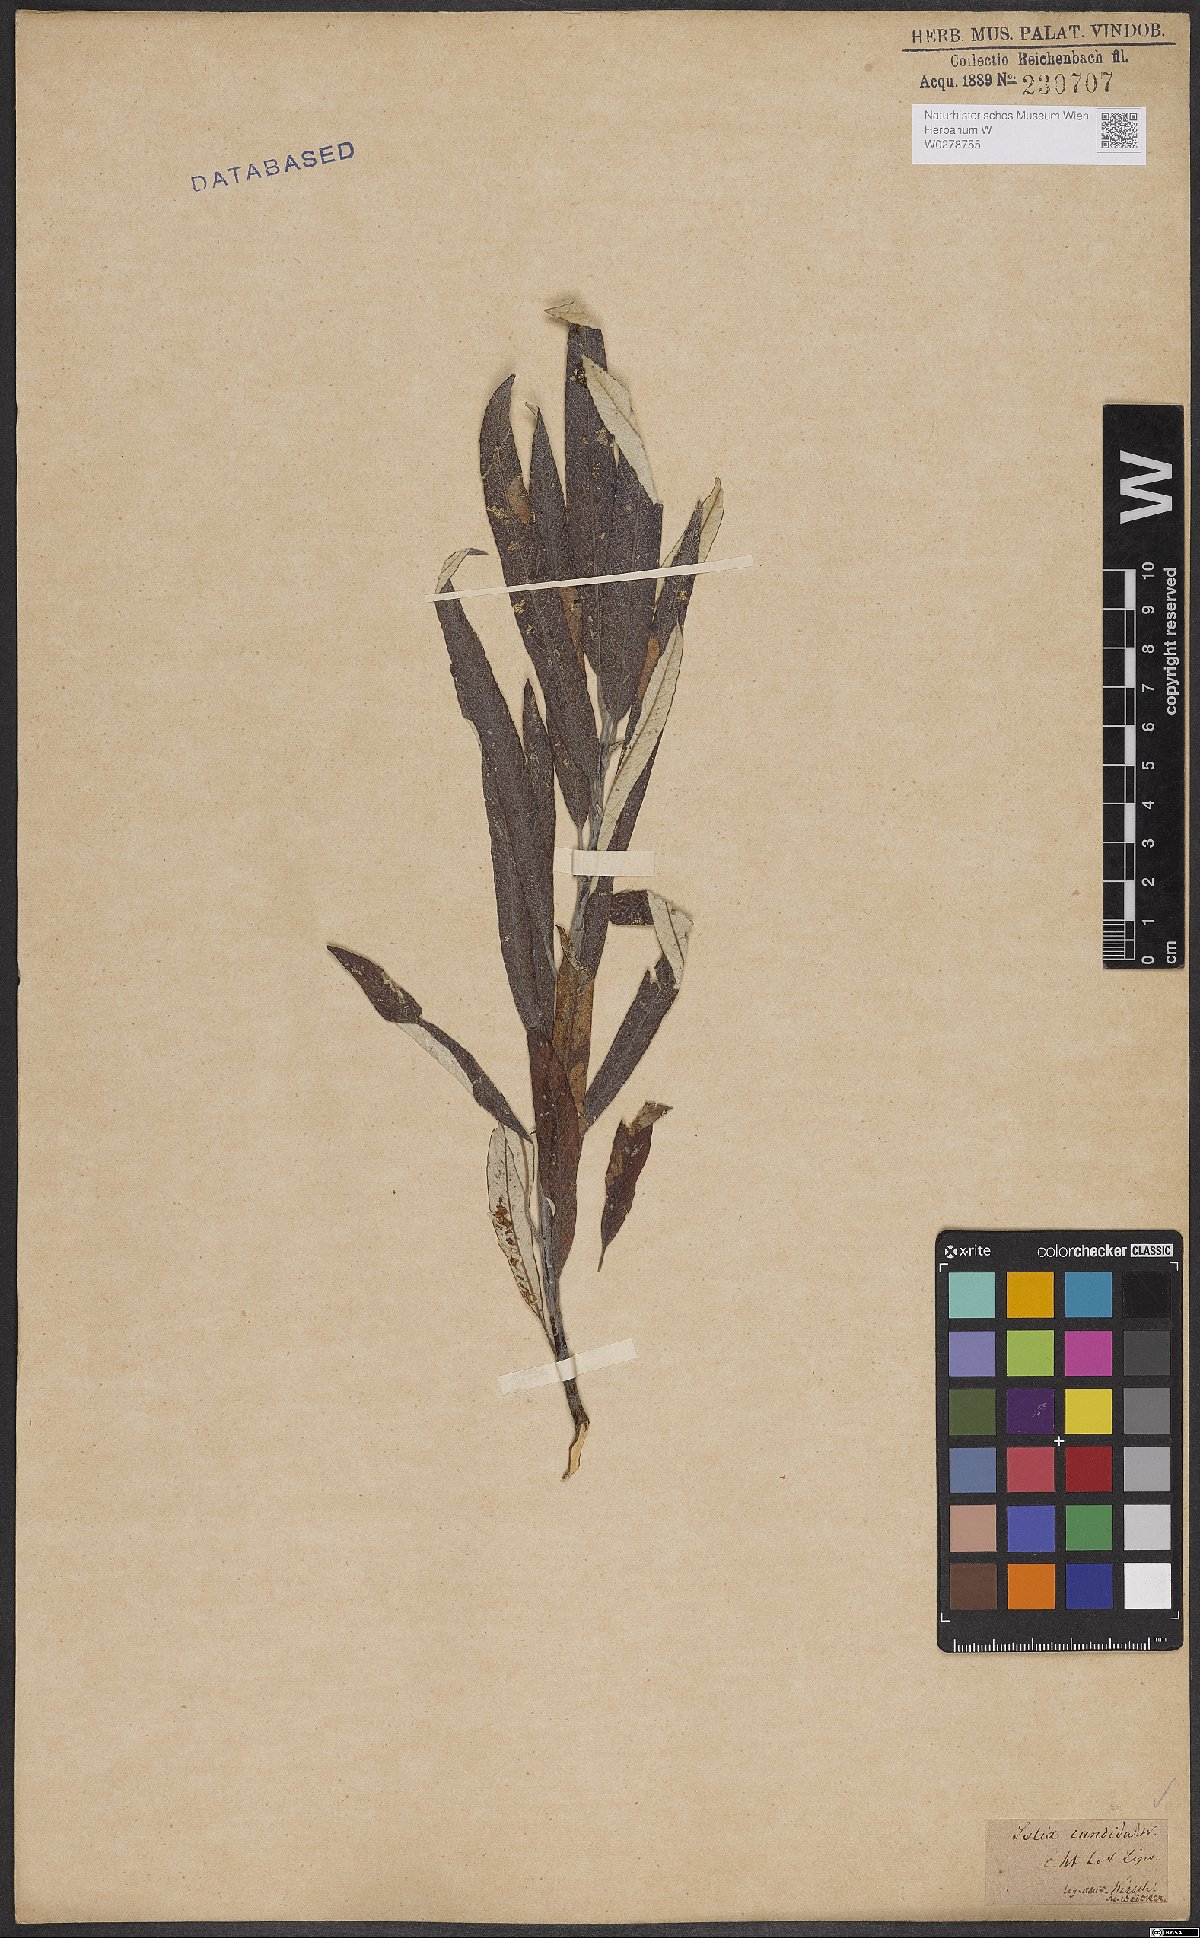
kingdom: Plantae
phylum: Tracheophyta
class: Magnoliopsida
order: Malpighiales
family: Salicaceae
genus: Salix
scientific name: Salix candida
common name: Hoary willow
